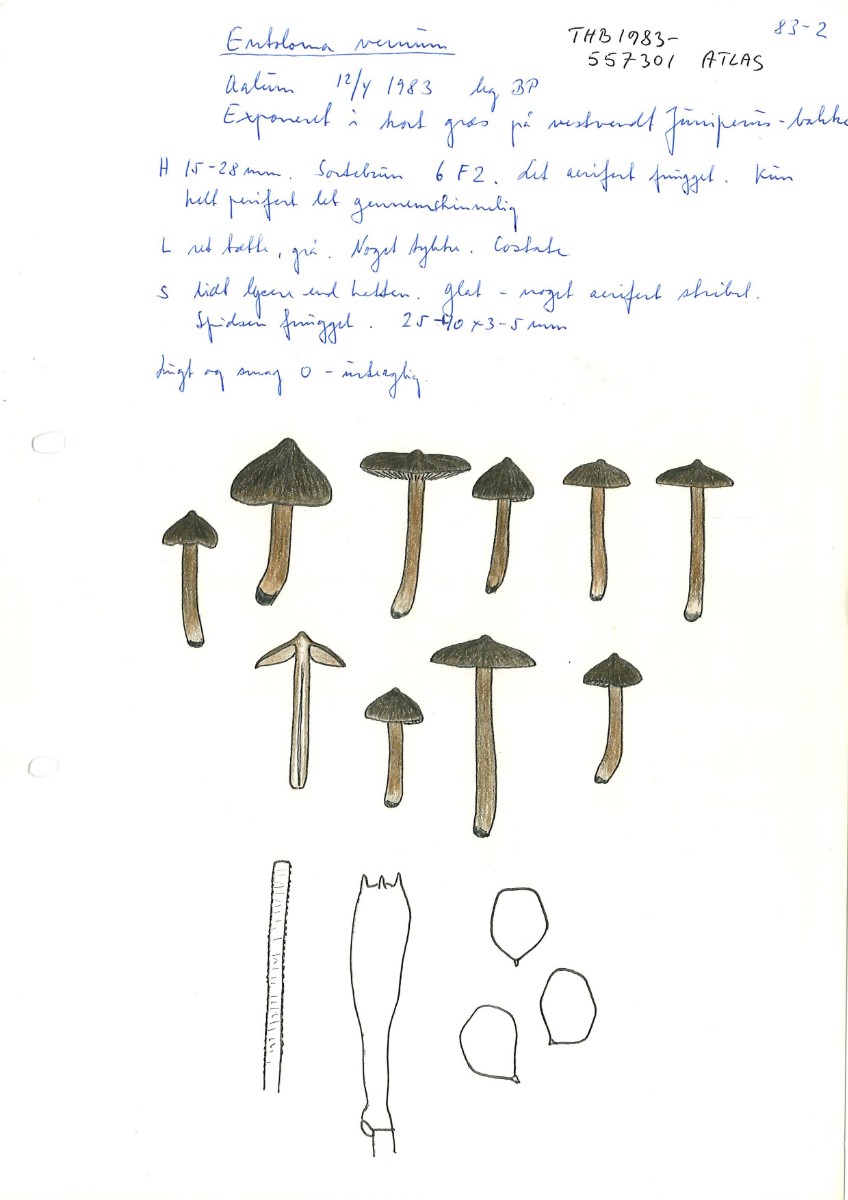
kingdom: Fungi
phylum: Basidiomycota
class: Agaricomycetes
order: Agaricales
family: Entolomataceae
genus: Entoloma
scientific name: Entoloma vernum
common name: vår-rødblad
